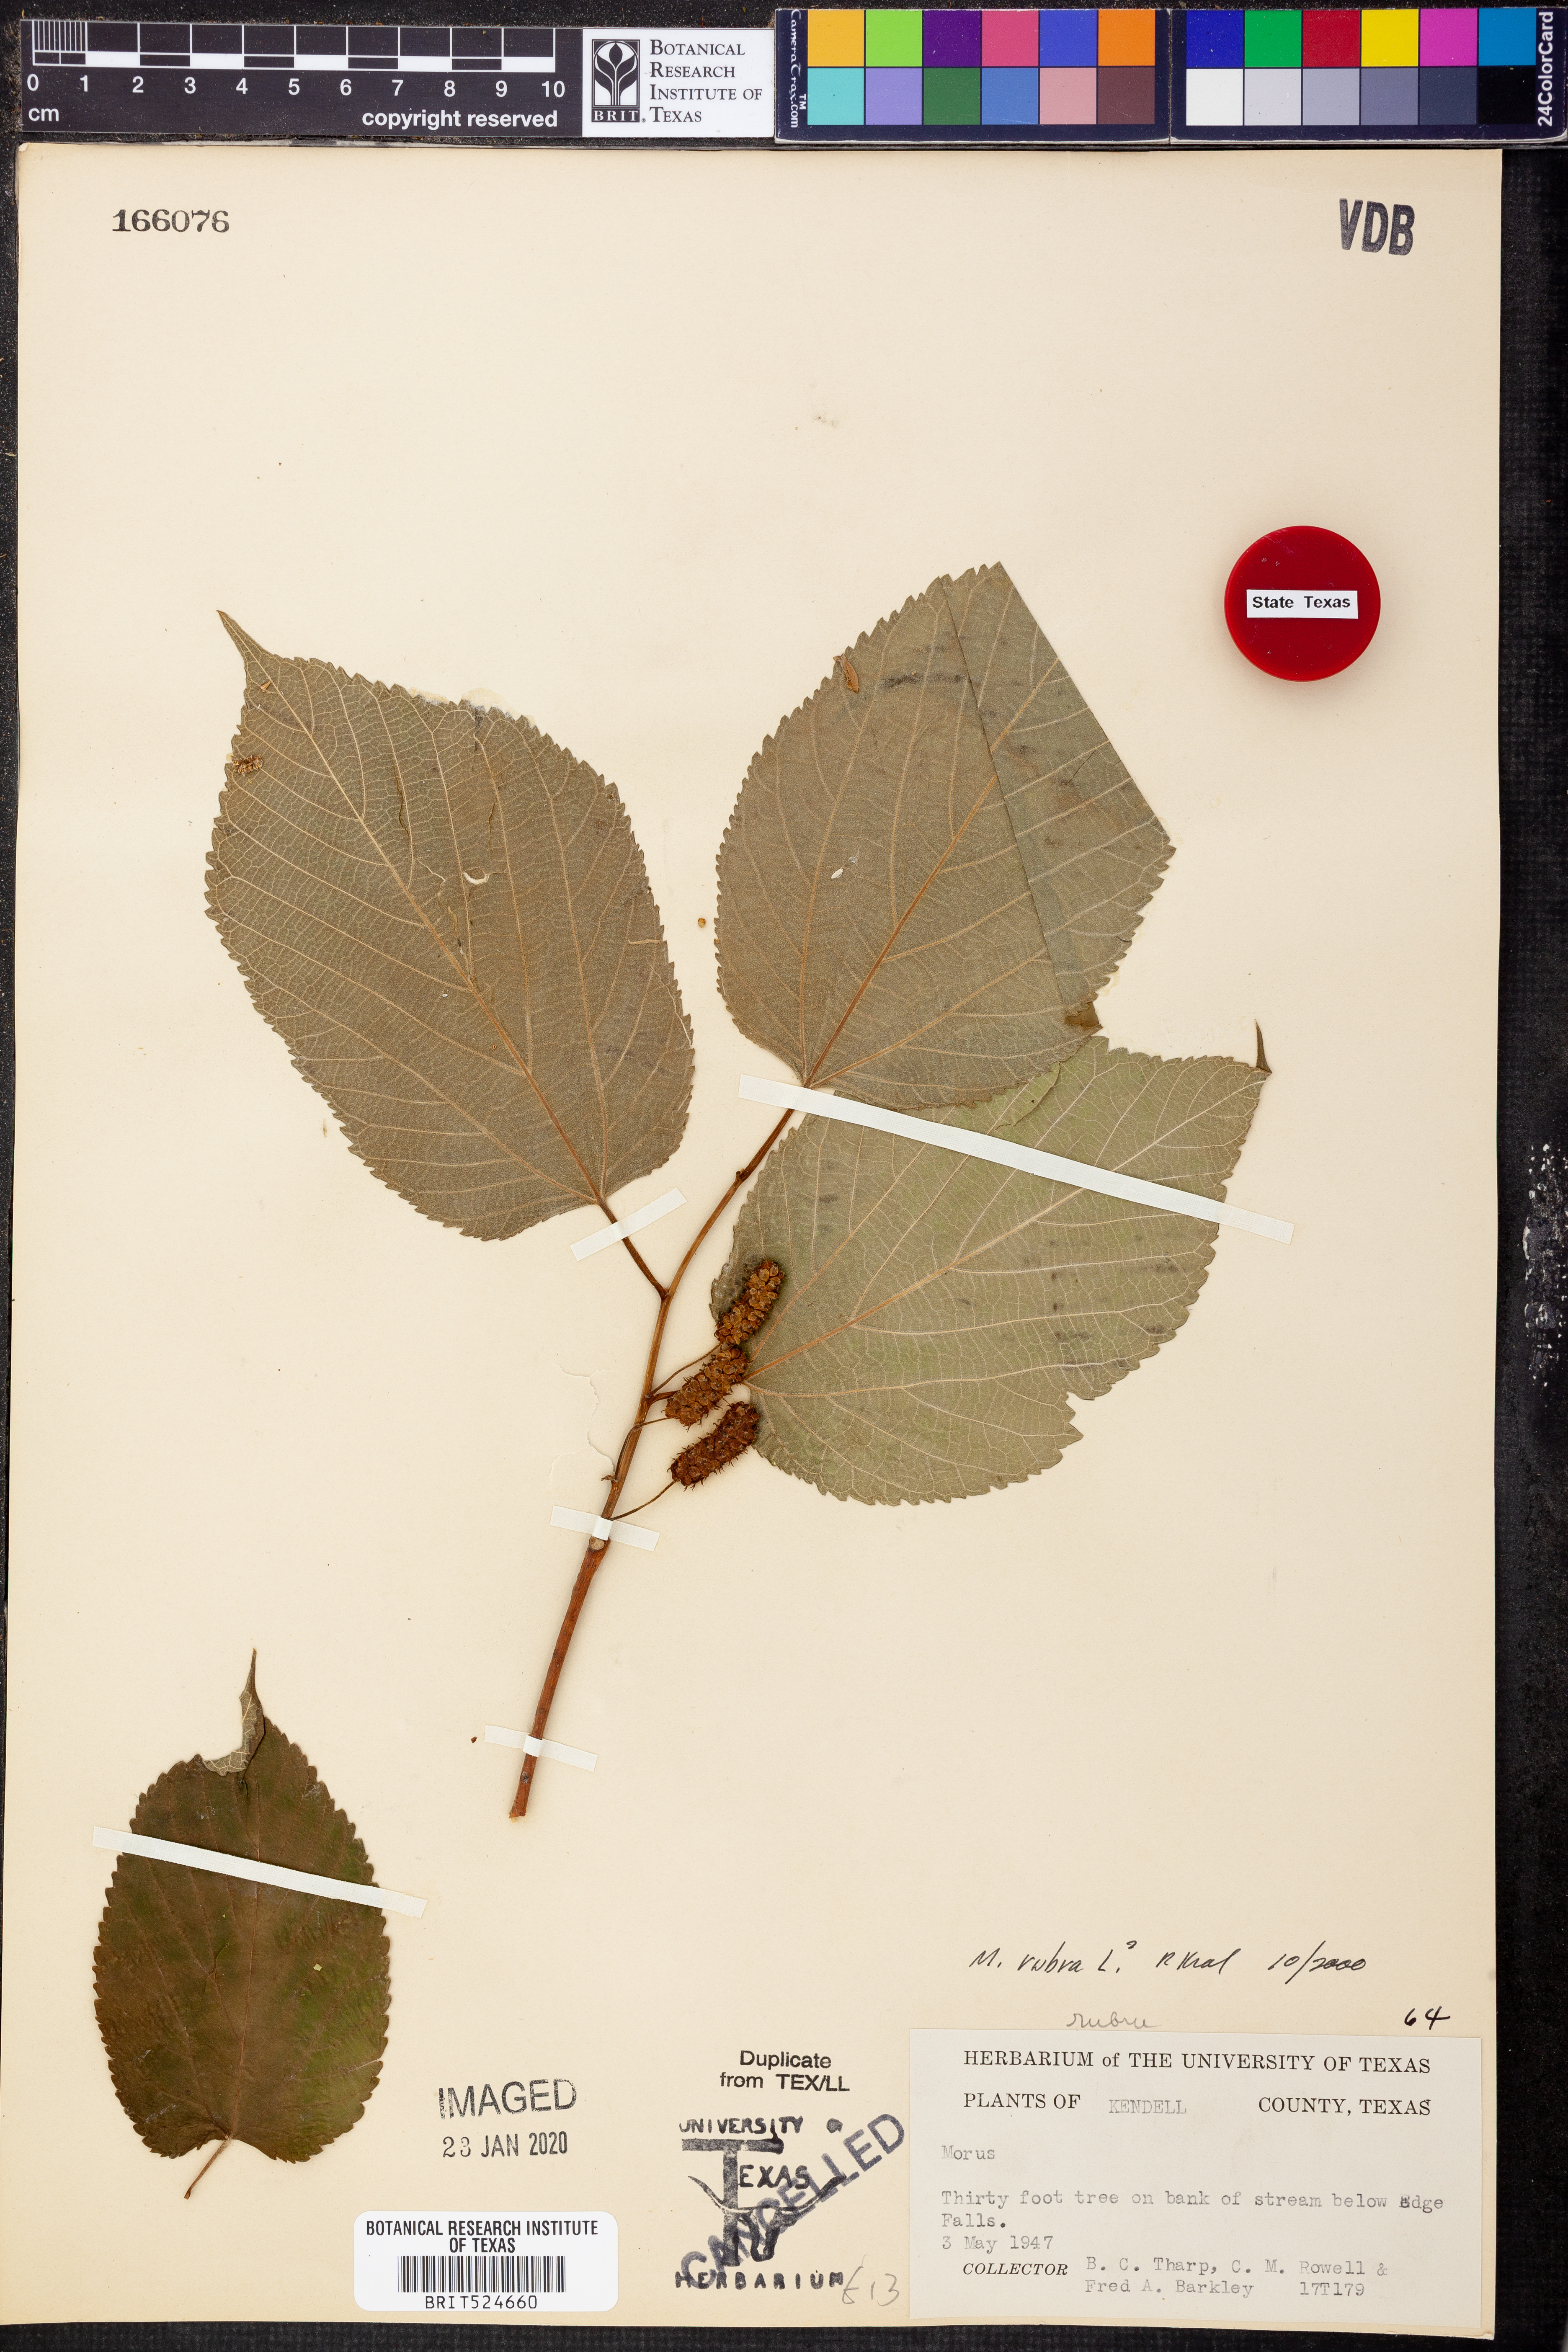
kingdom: Plantae
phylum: Tracheophyta
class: Magnoliopsida
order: Rosales
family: Moraceae
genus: Morus
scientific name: Morus rubra
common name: Red mulberry
